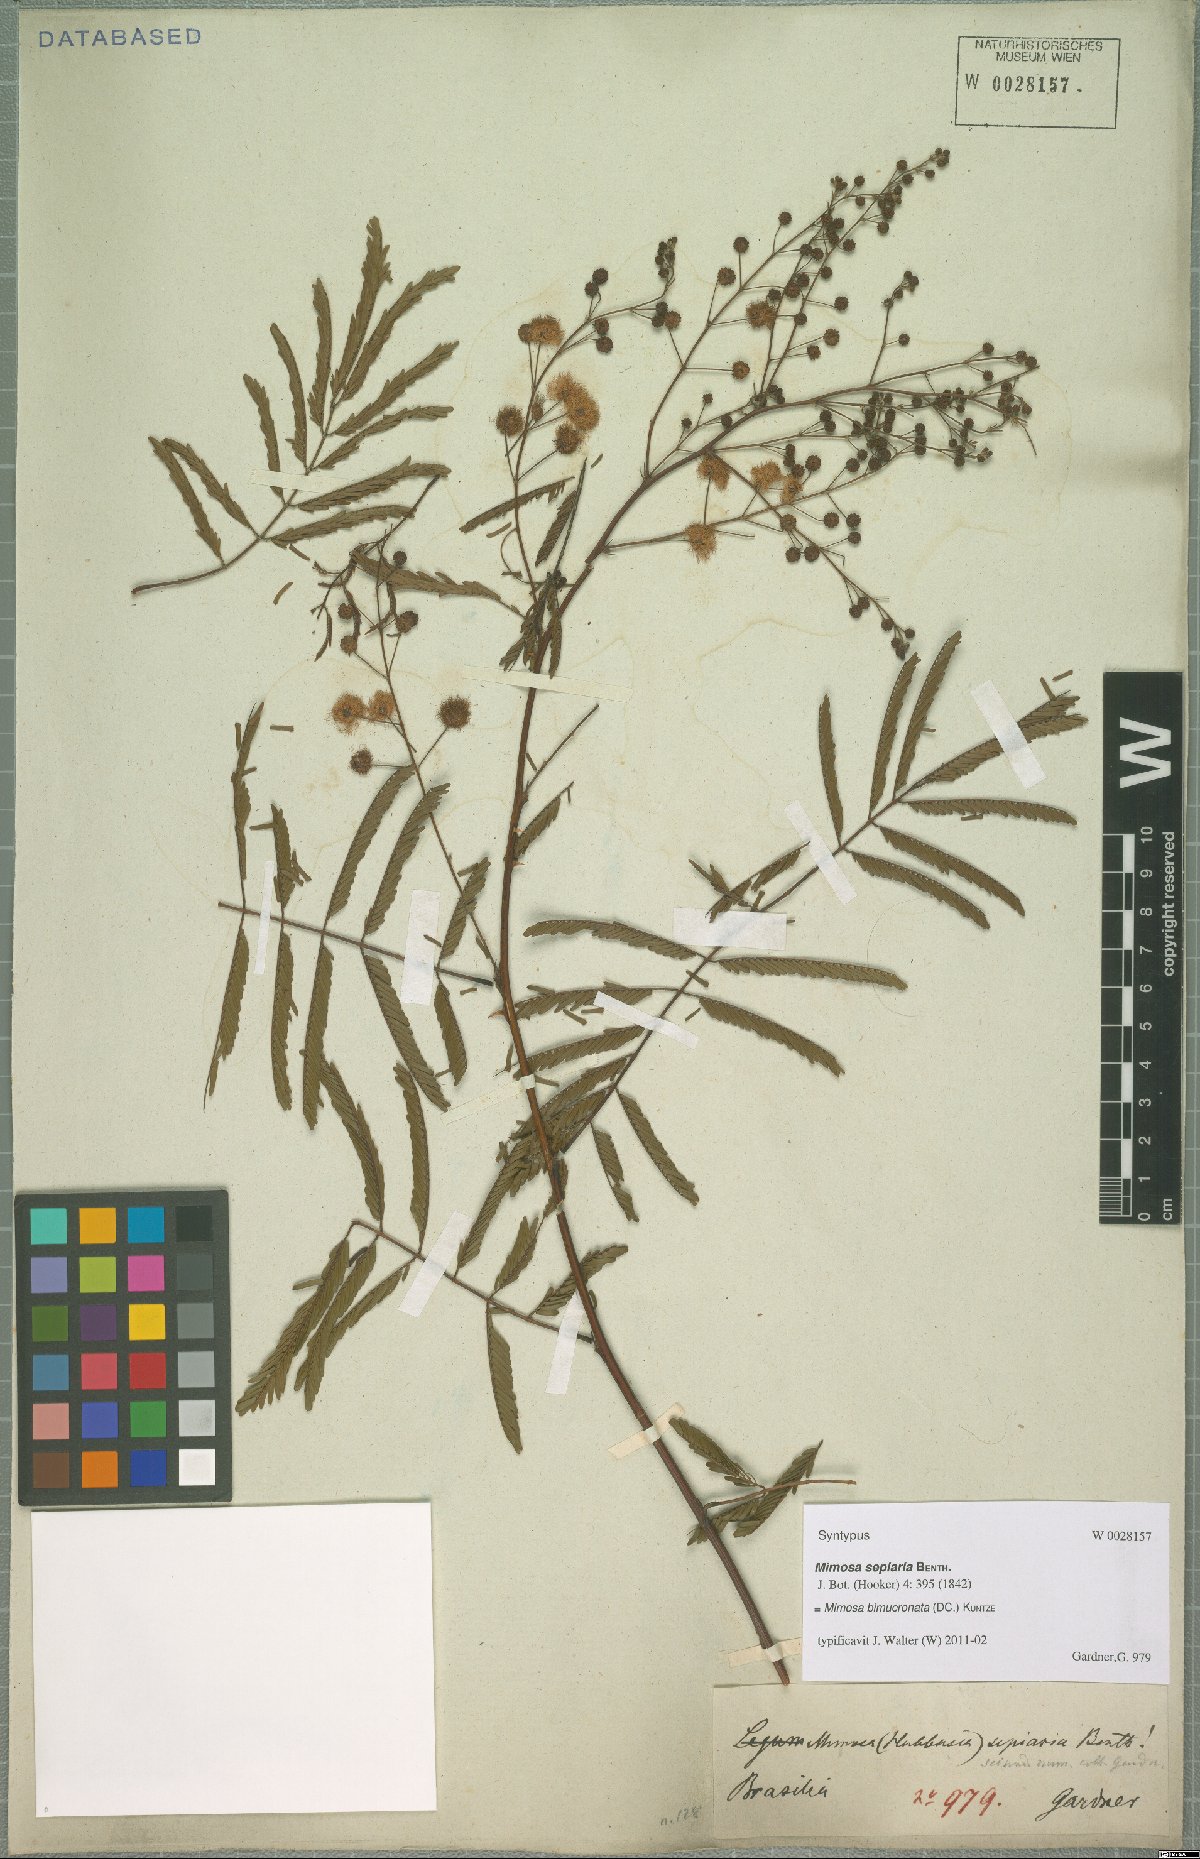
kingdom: Plantae
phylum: Tracheophyta
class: Magnoliopsida
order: Fabales
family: Fabaceae
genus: Mimosa
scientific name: Mimosa bimucronata
